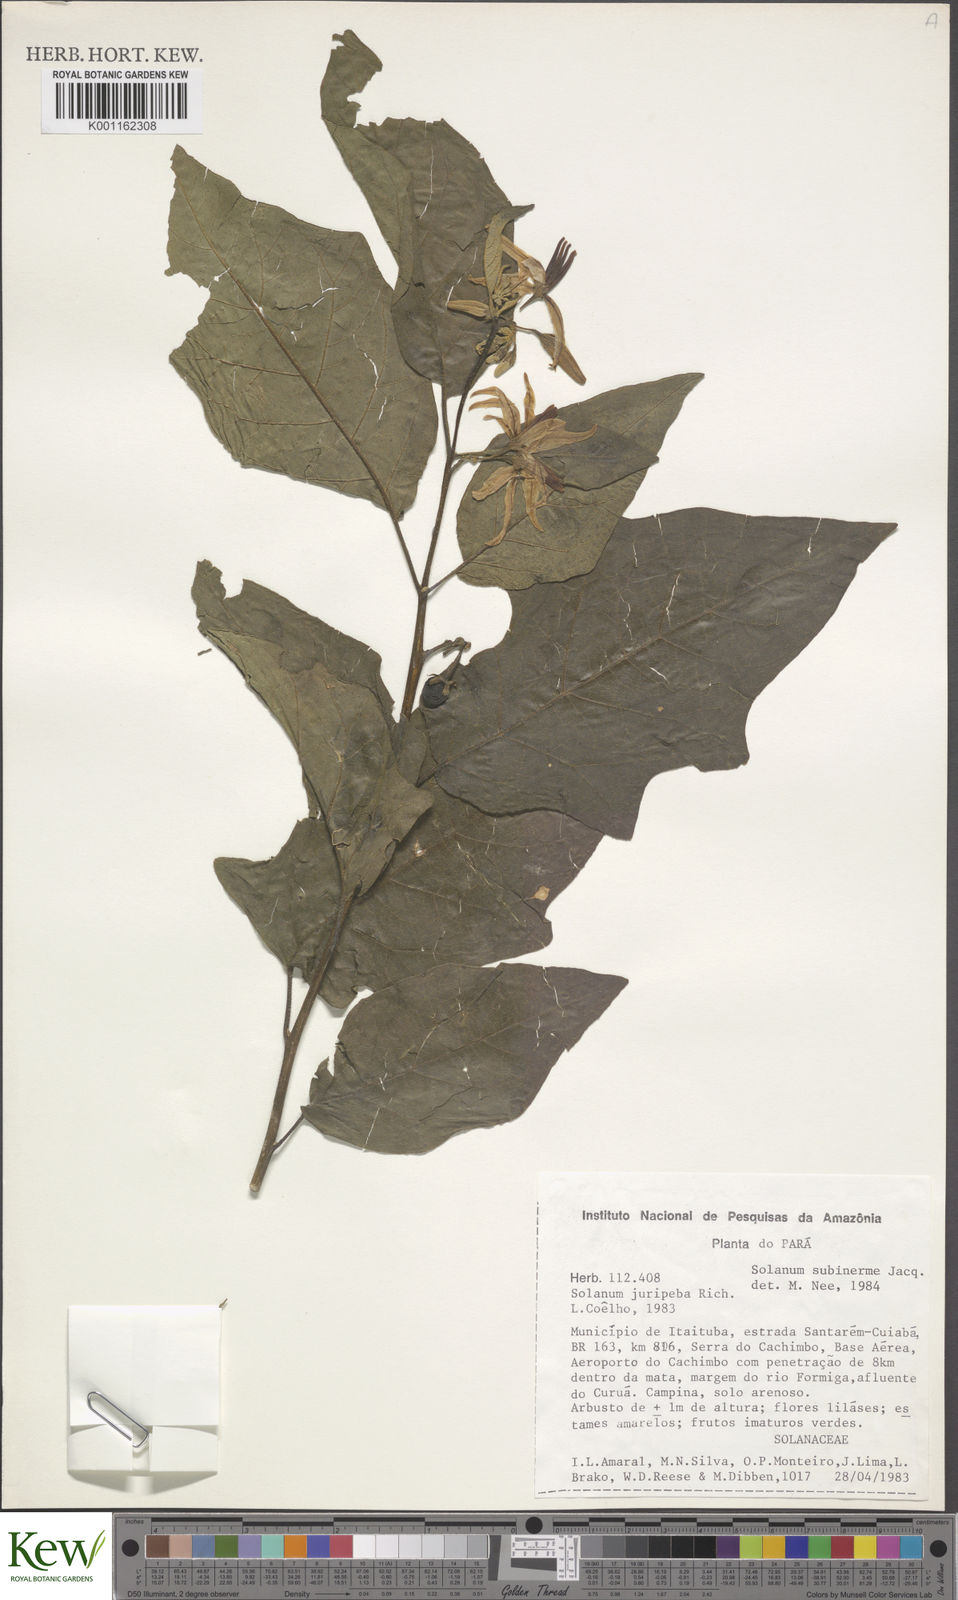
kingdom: Plantae
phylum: Tracheophyta
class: Magnoliopsida
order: Solanales
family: Solanaceae
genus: Solanum
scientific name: Solanum subinerme
